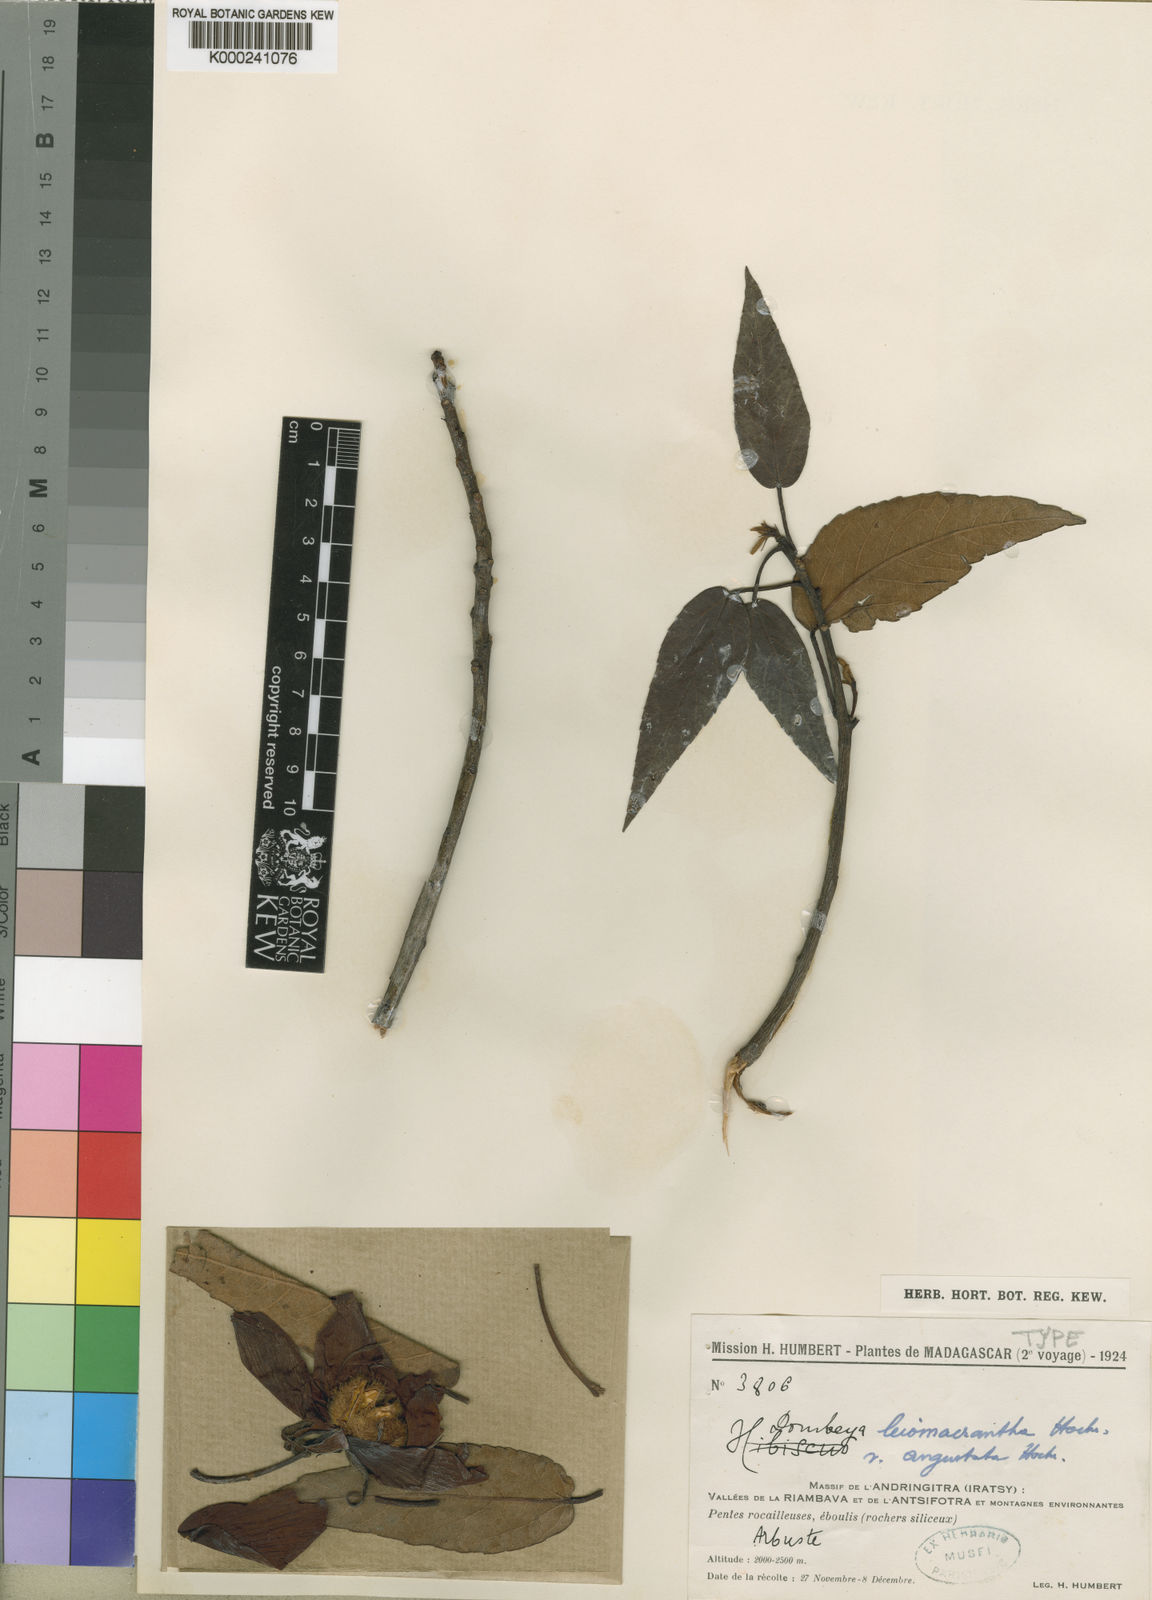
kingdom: Plantae
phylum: Tracheophyta
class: Magnoliopsida
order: Malvales
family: Malvaceae
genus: Andringitra
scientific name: Andringitra leiomacrantha
